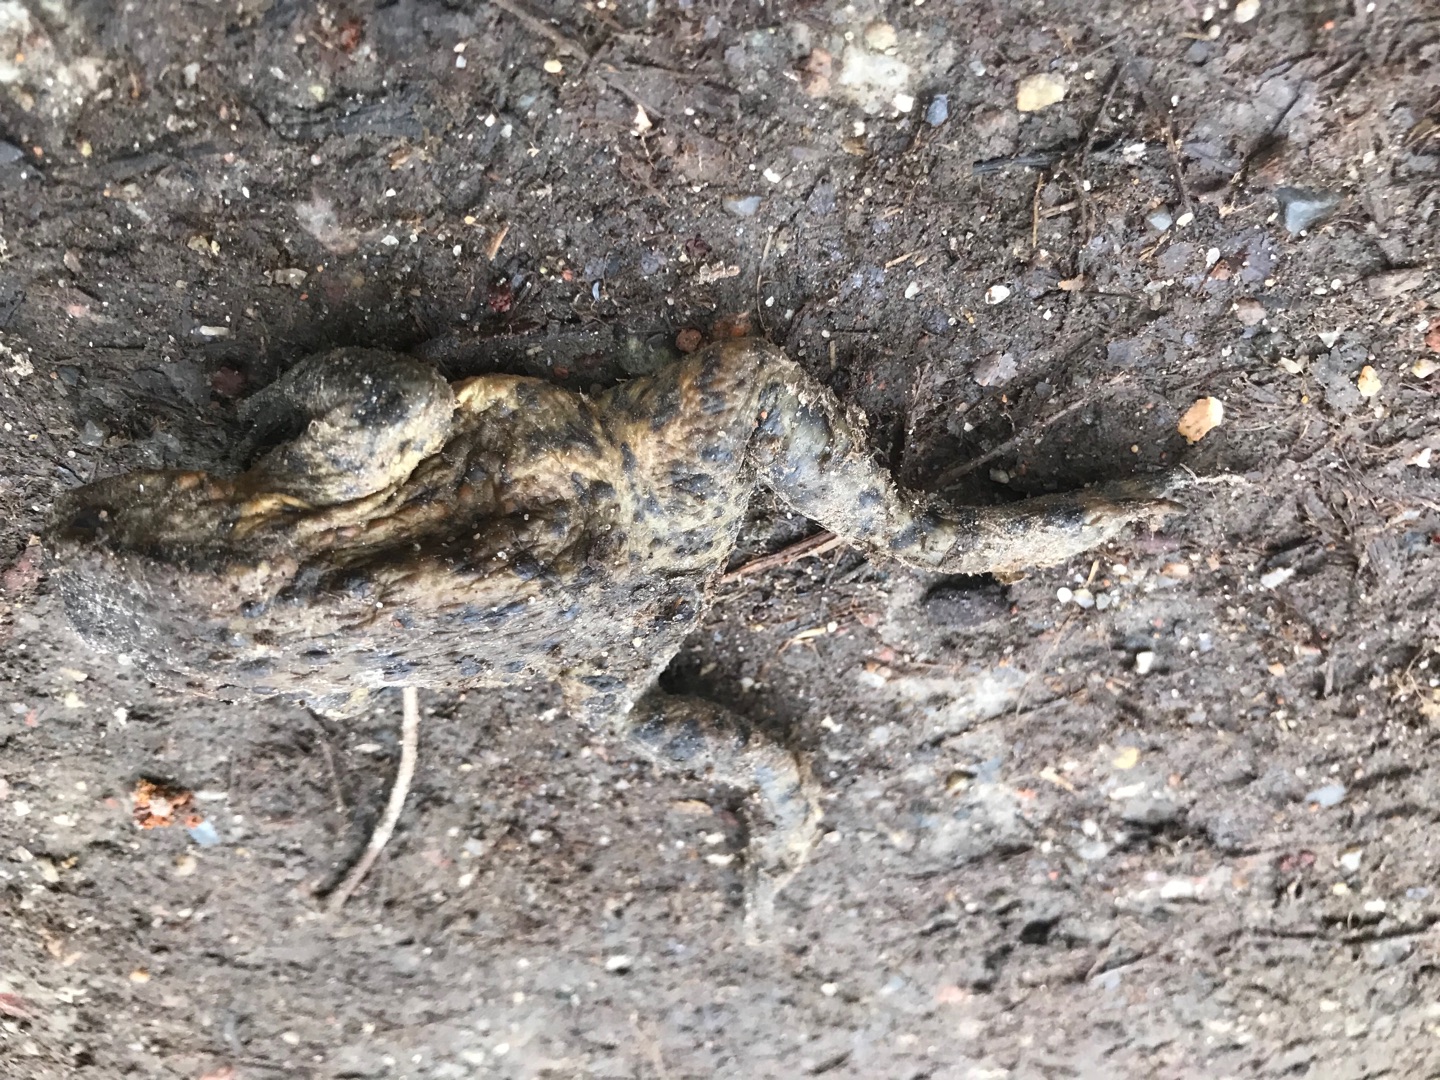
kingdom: Animalia
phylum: Chordata
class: Amphibia
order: Anura
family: Bufonidae
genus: Bufo
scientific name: Bufo bufo
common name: Skrubtudse
